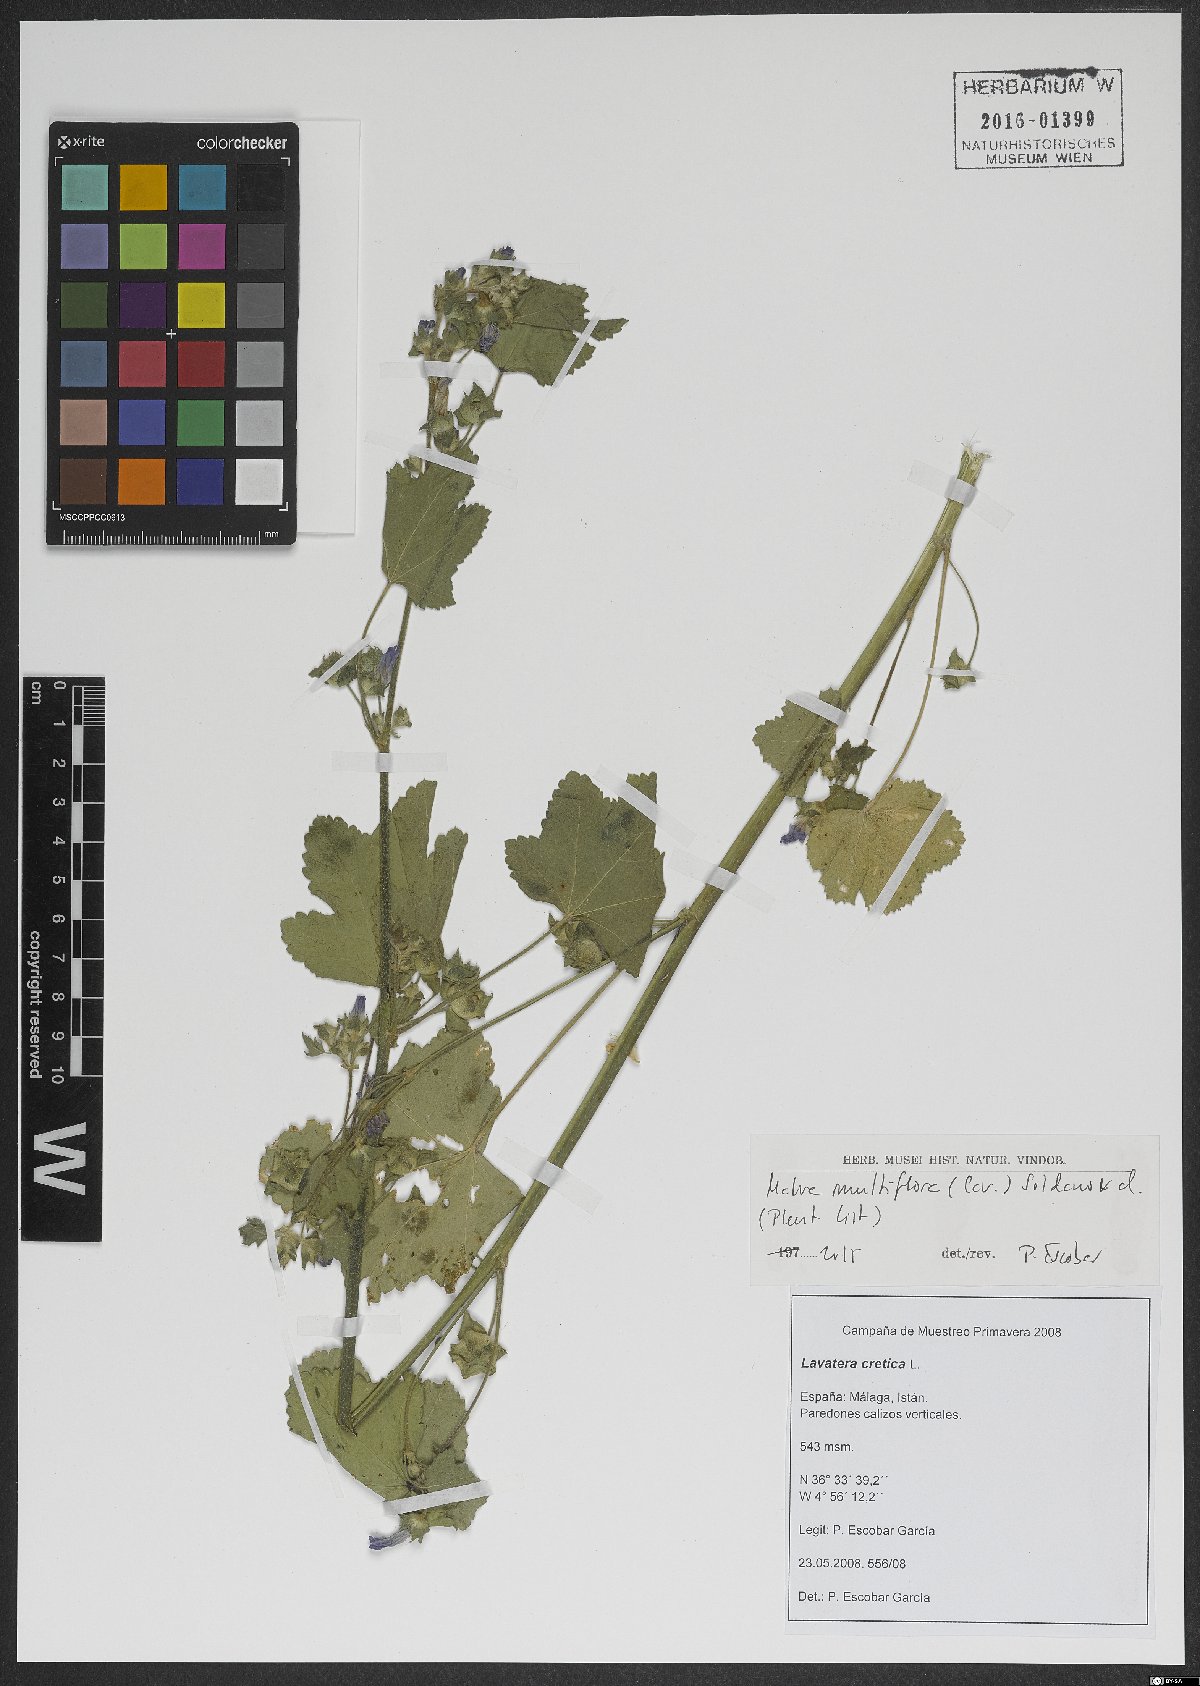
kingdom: Plantae
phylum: Tracheophyta
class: Magnoliopsida
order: Malvales
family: Malvaceae
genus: Malva
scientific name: Malva multiflora
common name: Cheeseweed
